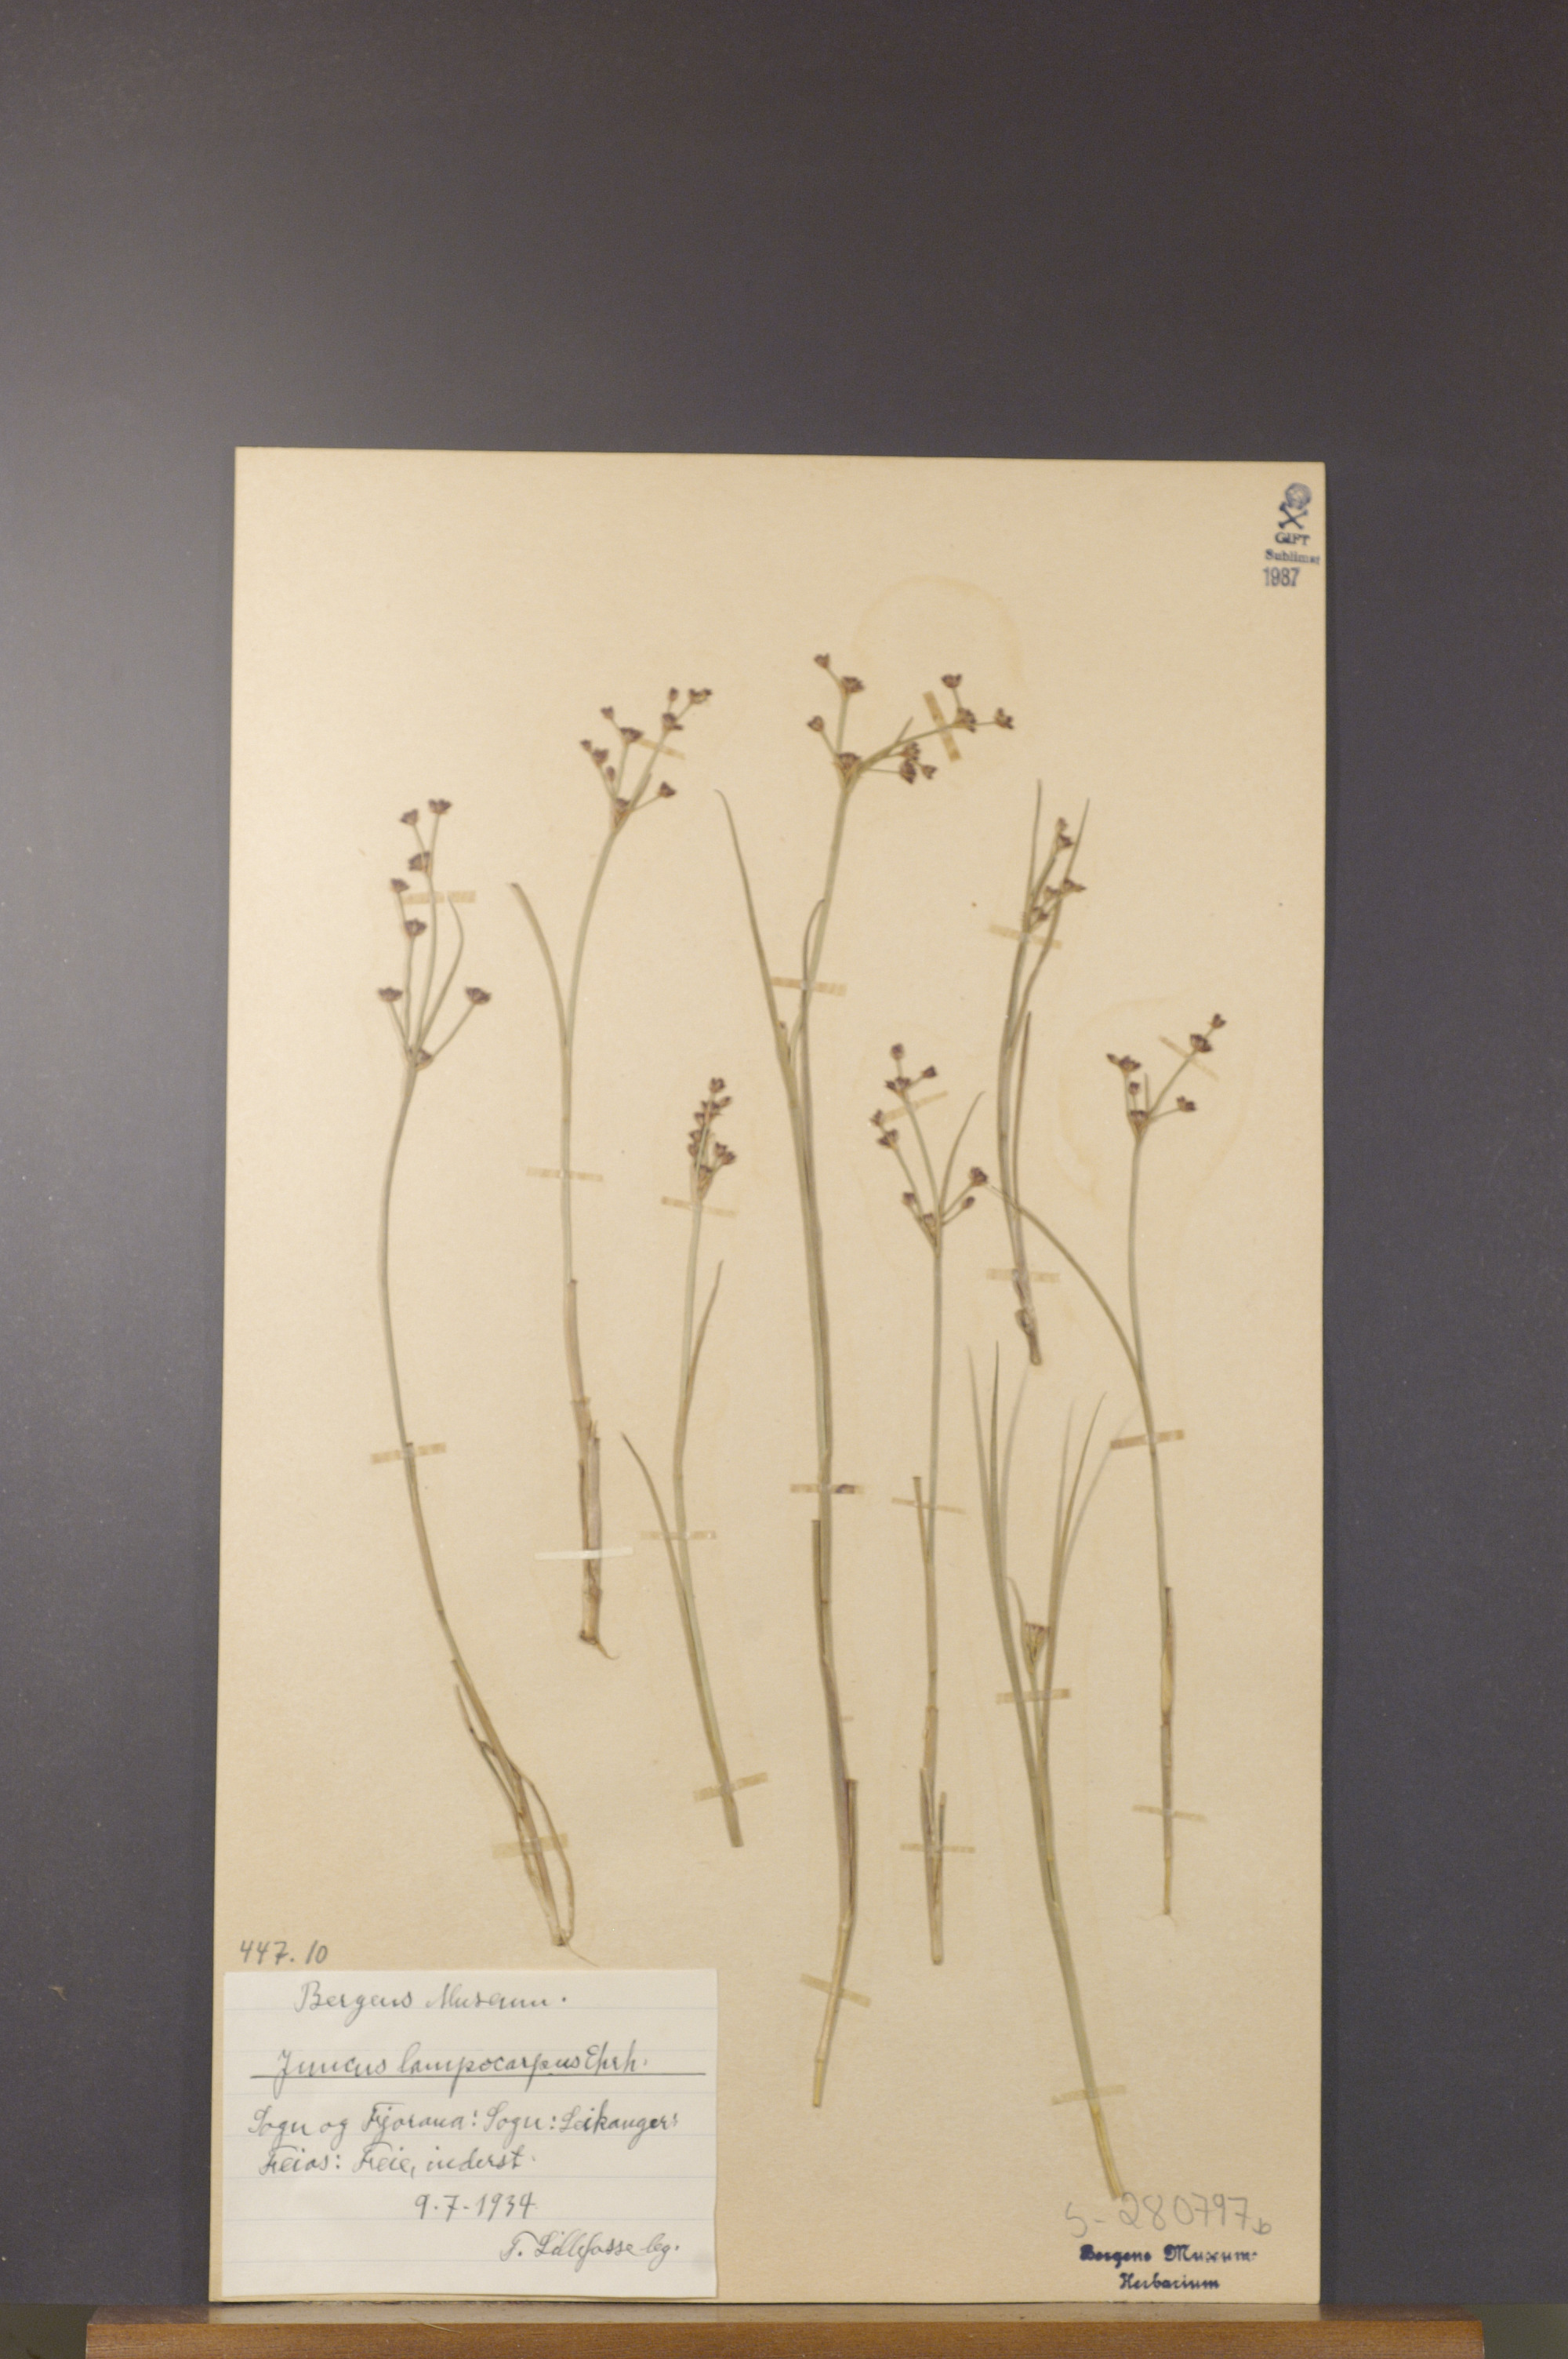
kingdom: Plantae
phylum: Tracheophyta
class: Liliopsida
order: Poales
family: Juncaceae
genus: Juncus
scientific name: Juncus articulatus
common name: Jointed rush
